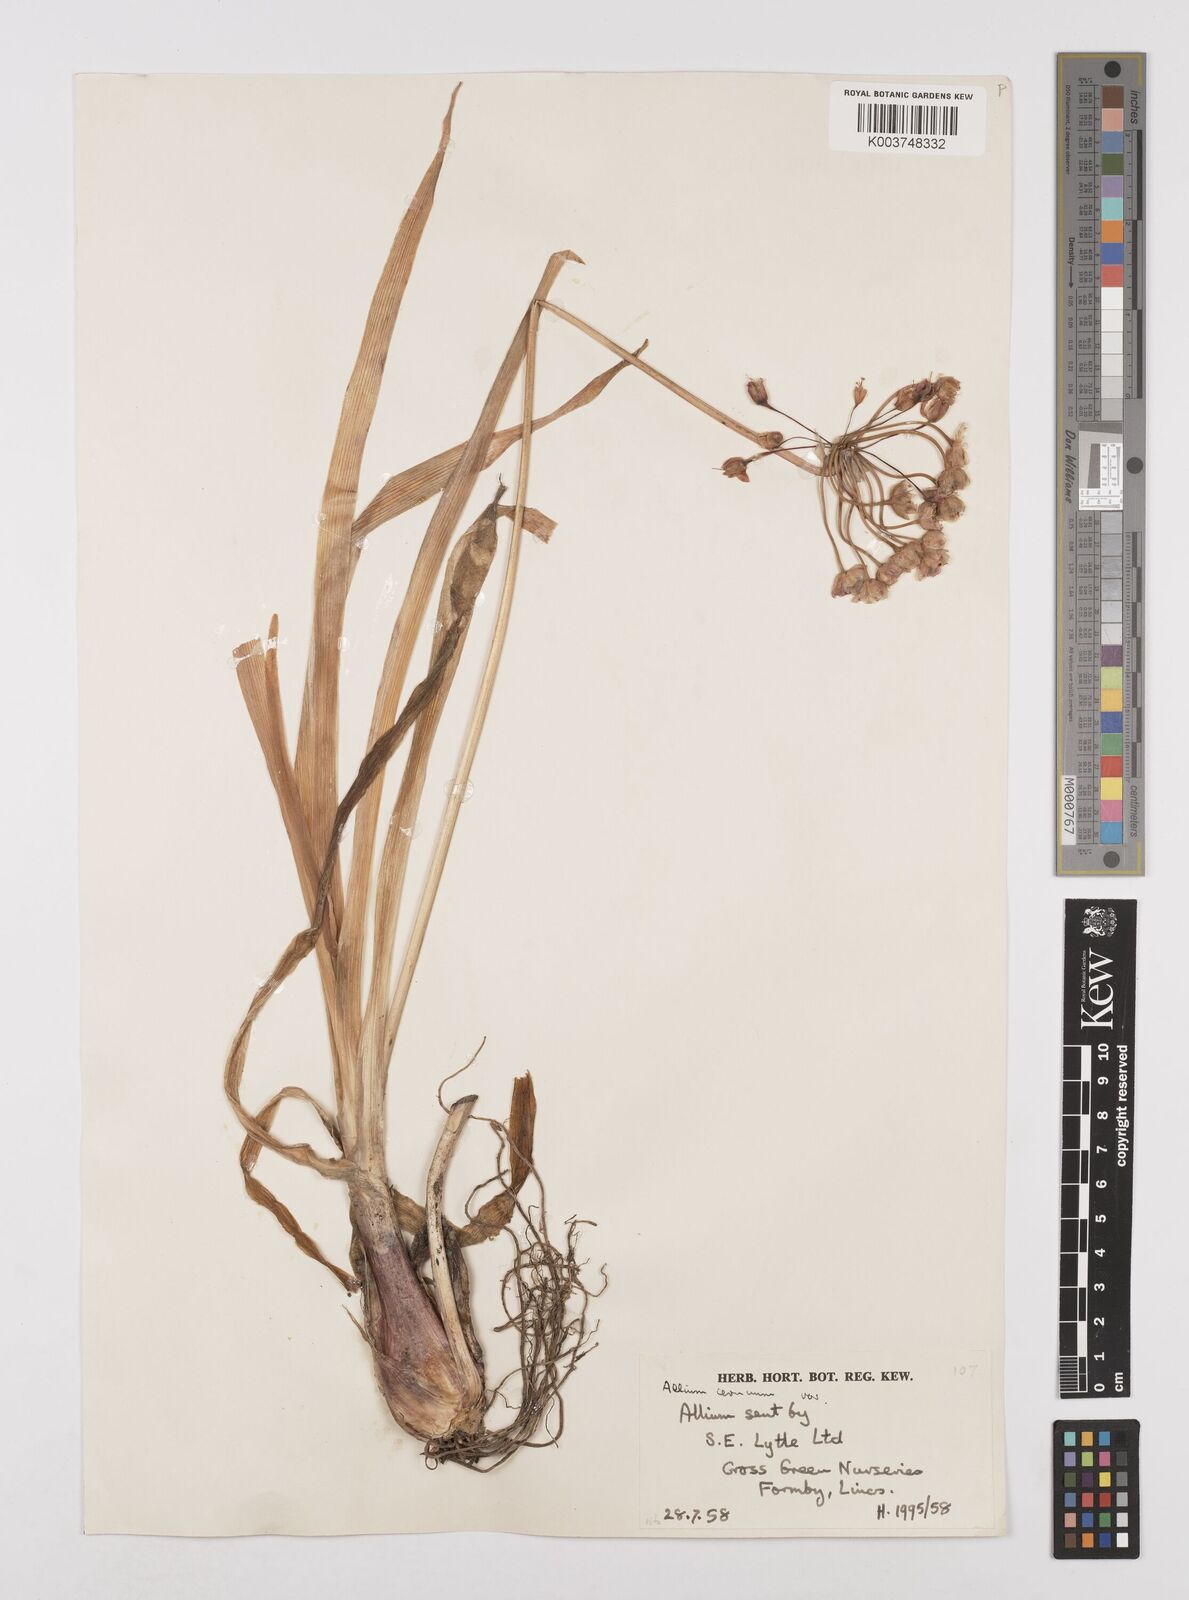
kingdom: Plantae
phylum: Tracheophyta
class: Liliopsida
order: Asparagales
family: Amaryllidaceae
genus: Allium
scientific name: Allium cernuum
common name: Nodding onion
